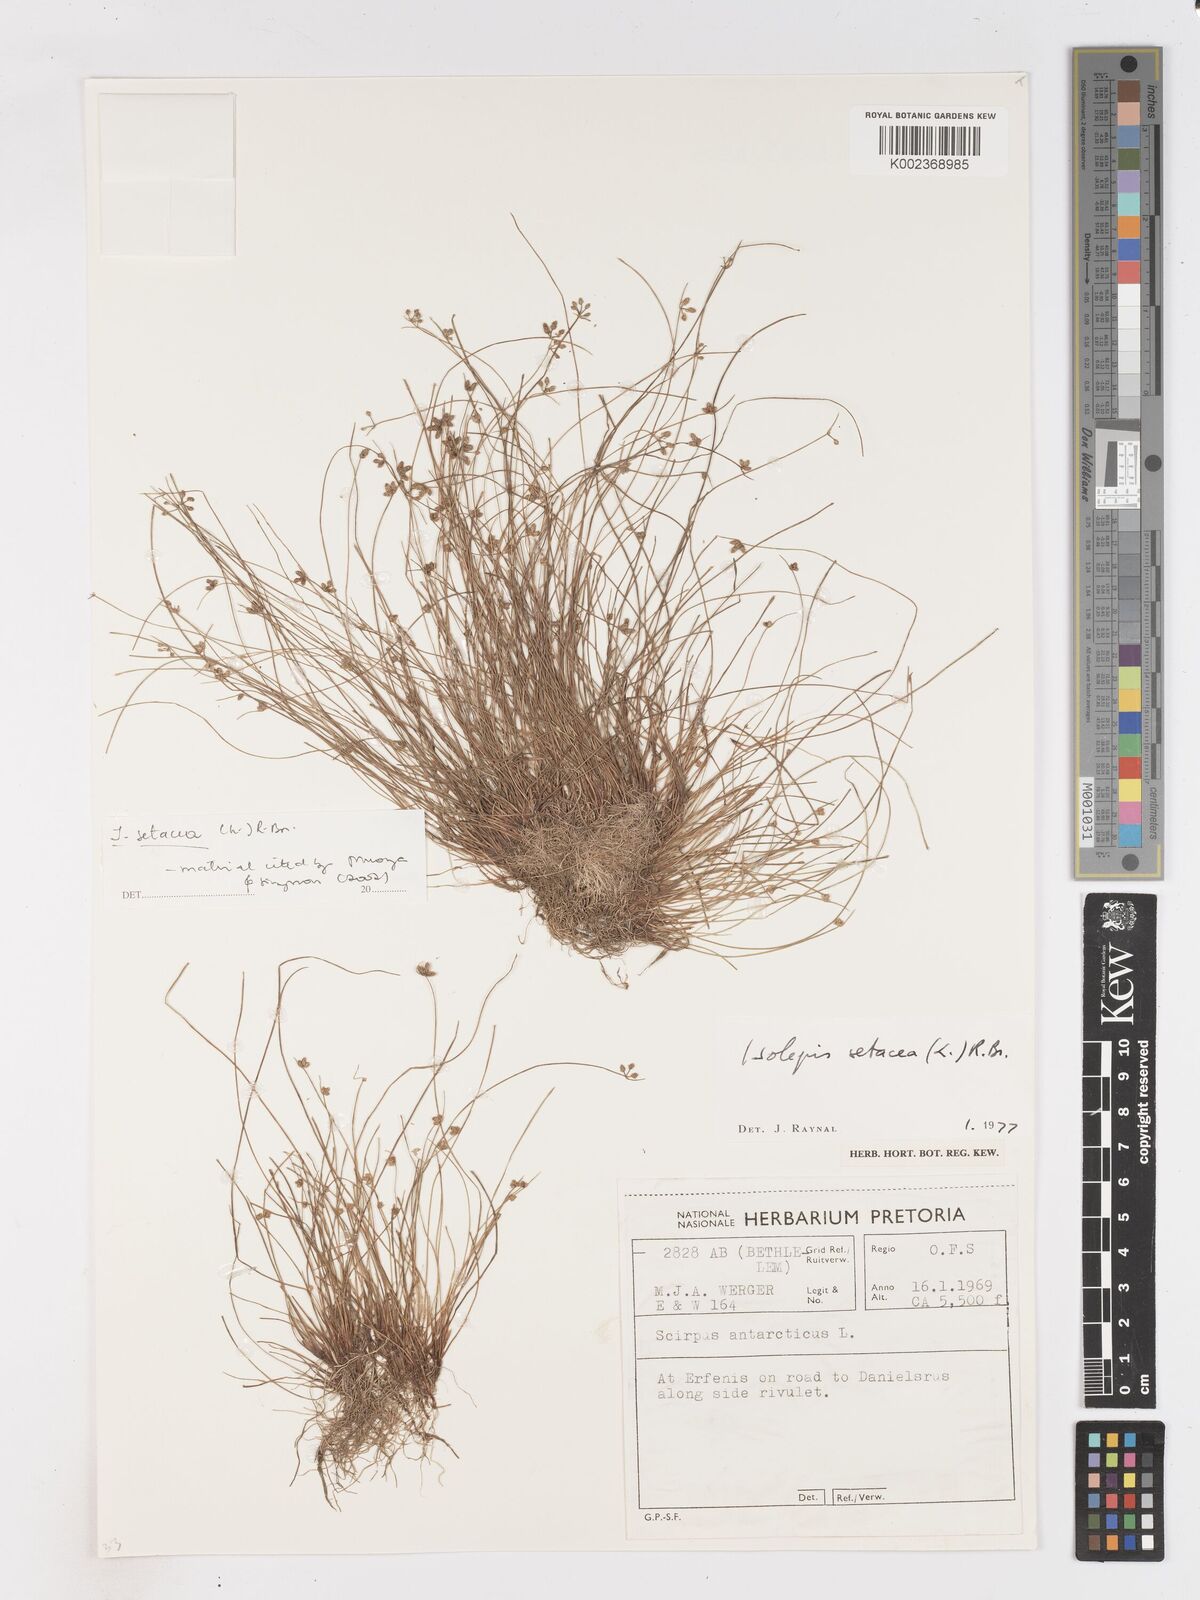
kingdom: Plantae
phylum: Tracheophyta
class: Liliopsida
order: Poales
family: Cyperaceae
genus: Isolepis
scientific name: Isolepis setacea
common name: Bristle club-rush
